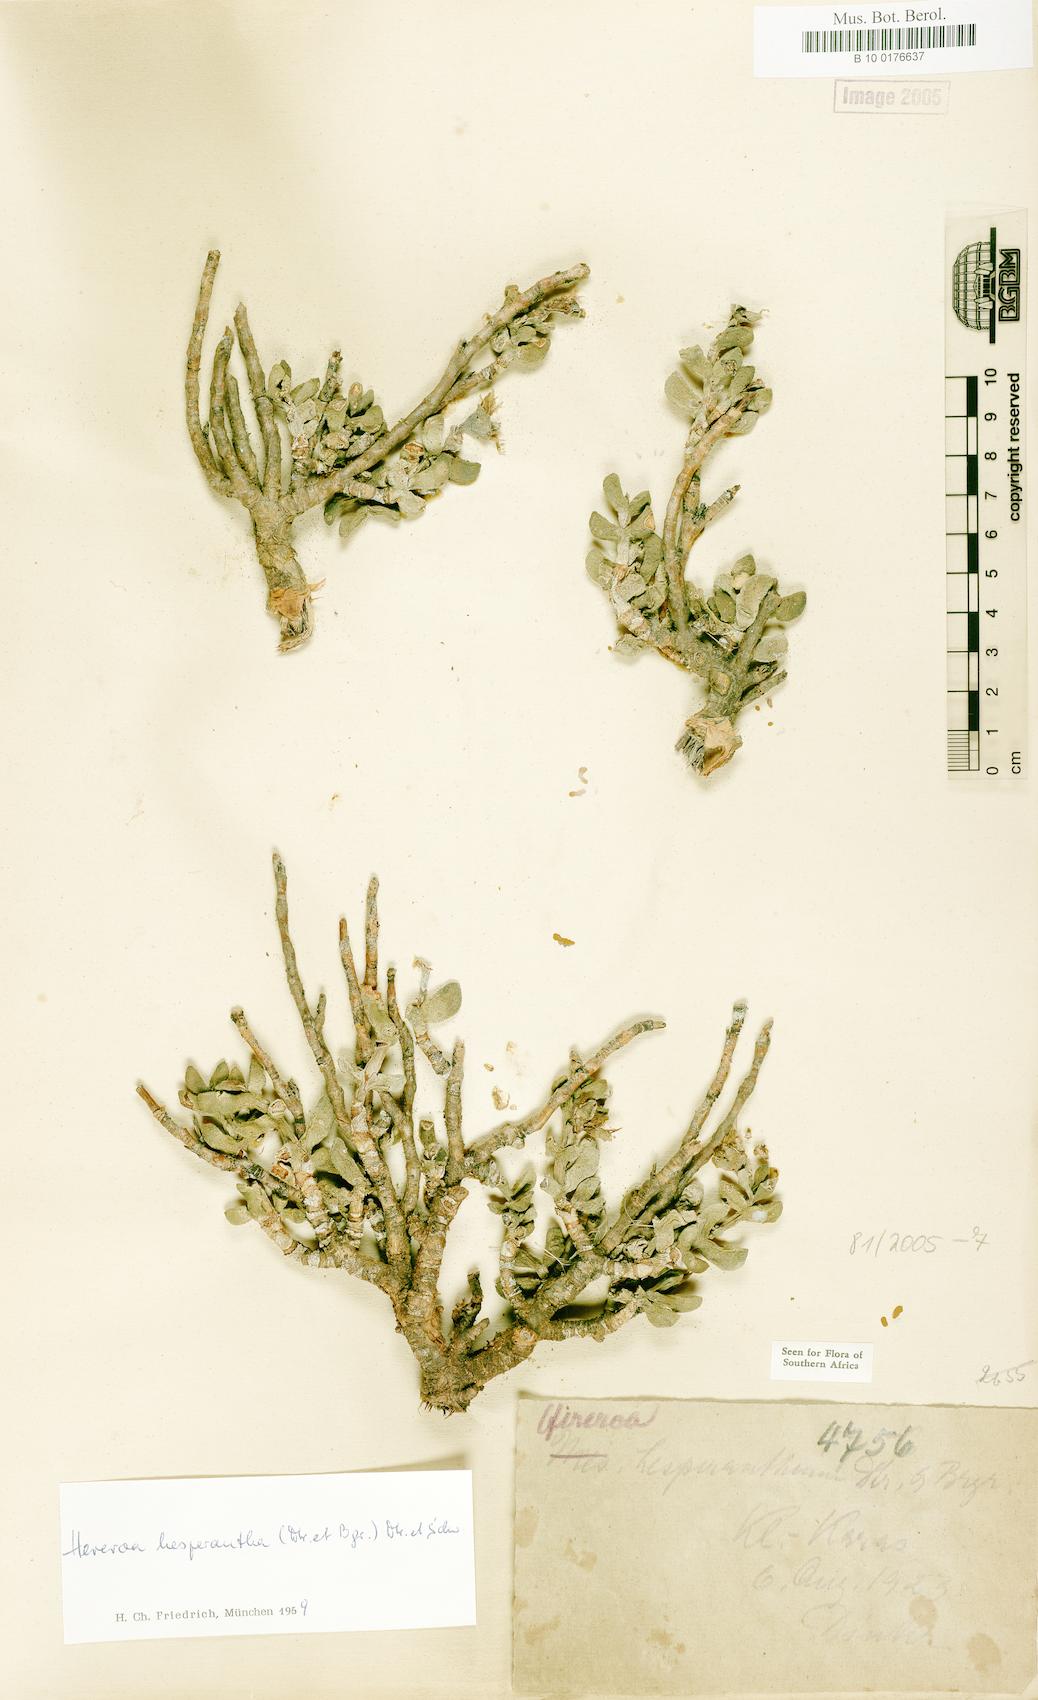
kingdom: Plantae
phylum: Tracheophyta
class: Magnoliopsida
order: Caryophyllales
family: Aizoaceae
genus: Dracophilus
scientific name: Dracophilus Hereroa hesperantha
